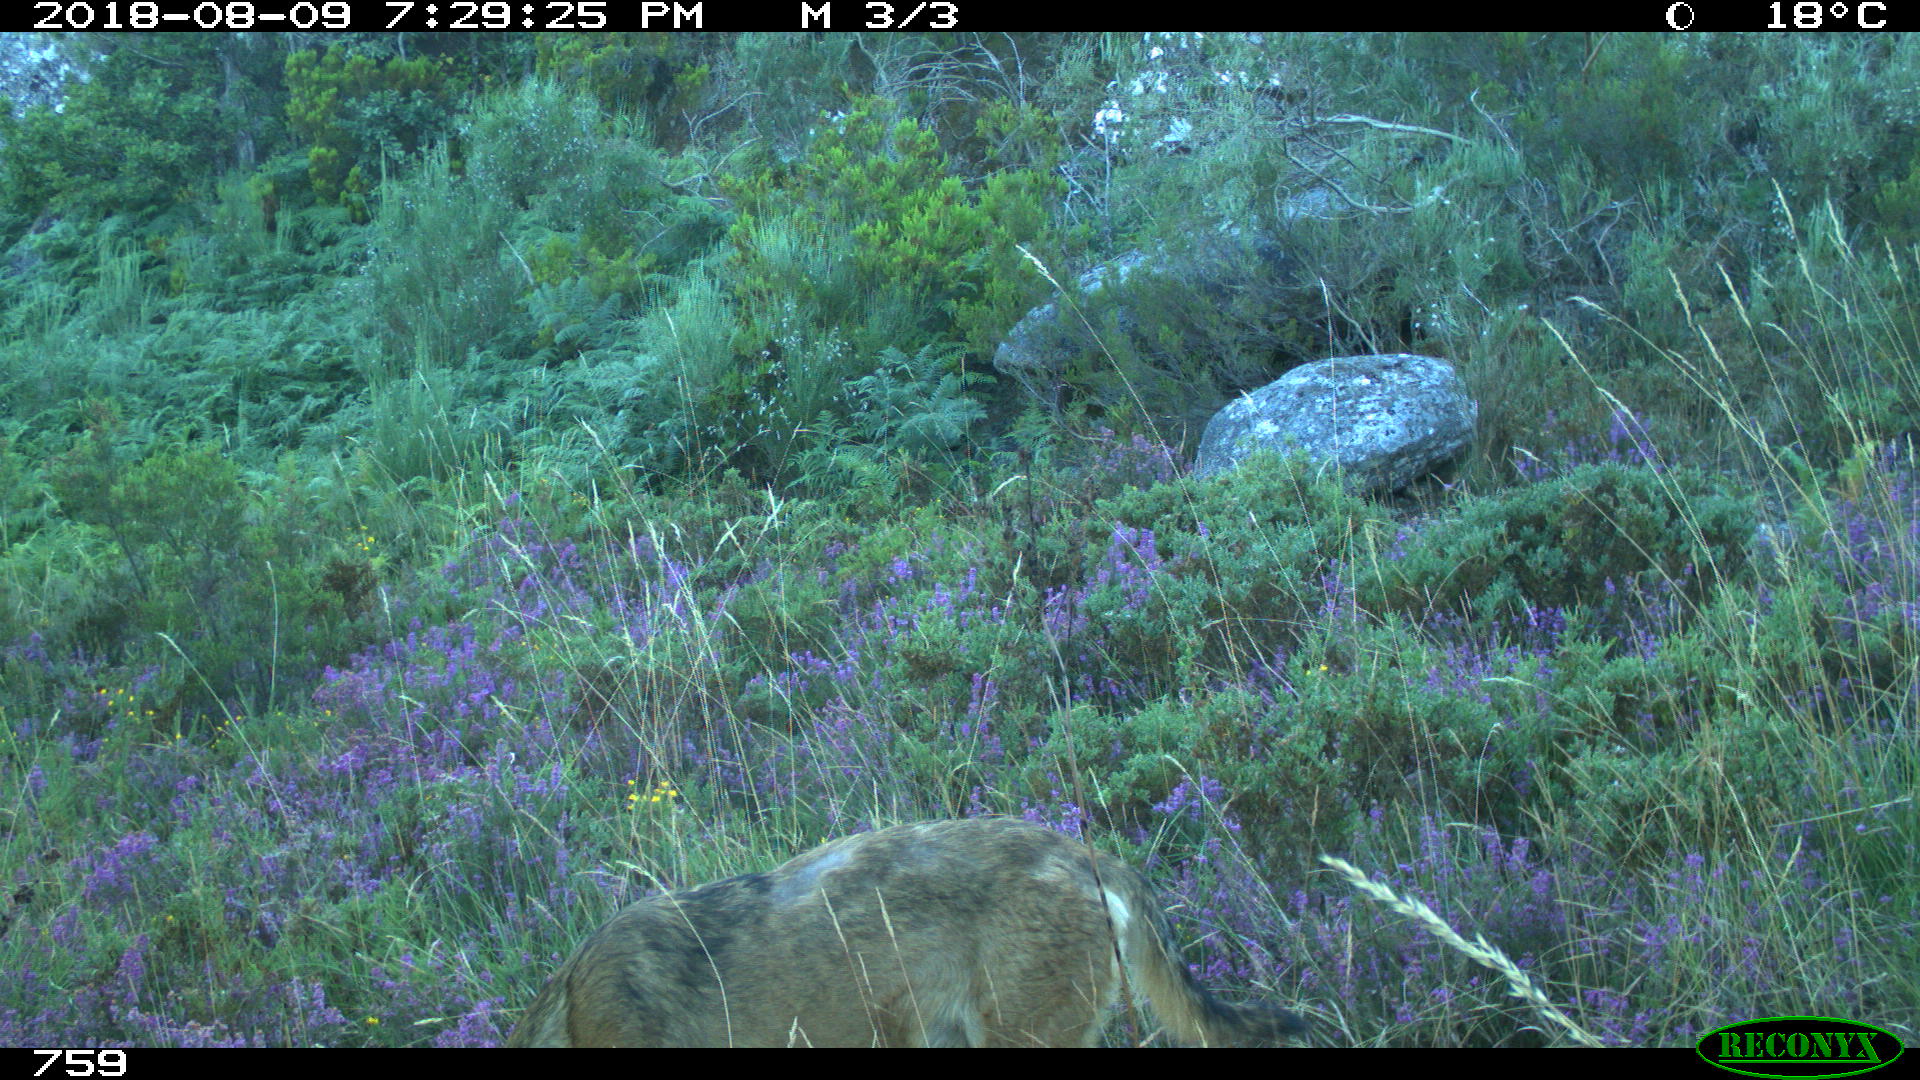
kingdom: Animalia
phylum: Chordata
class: Mammalia
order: Carnivora
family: Canidae
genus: Canis
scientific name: Canis lupus
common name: Gray wolf
